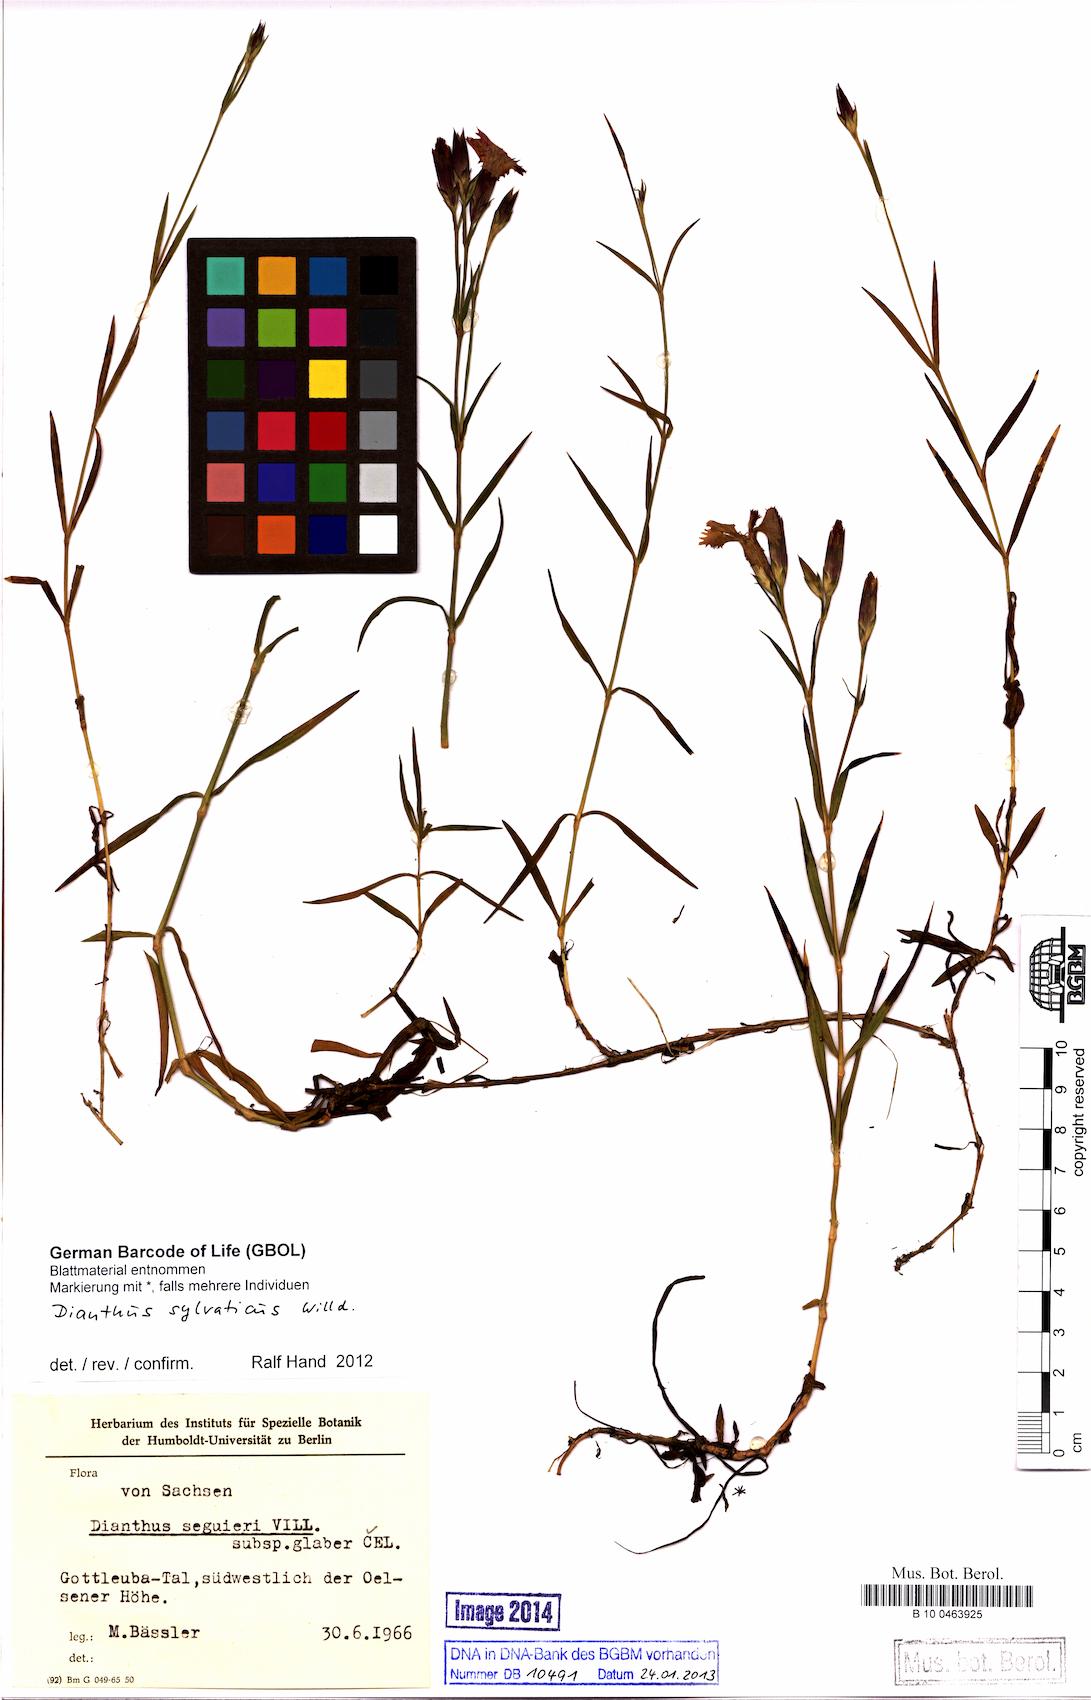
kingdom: Plantae
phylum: Tracheophyta
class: Magnoliopsida
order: Caryophyllales
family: Caryophyllaceae
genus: Dianthus
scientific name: Dianthus sylvaticus
